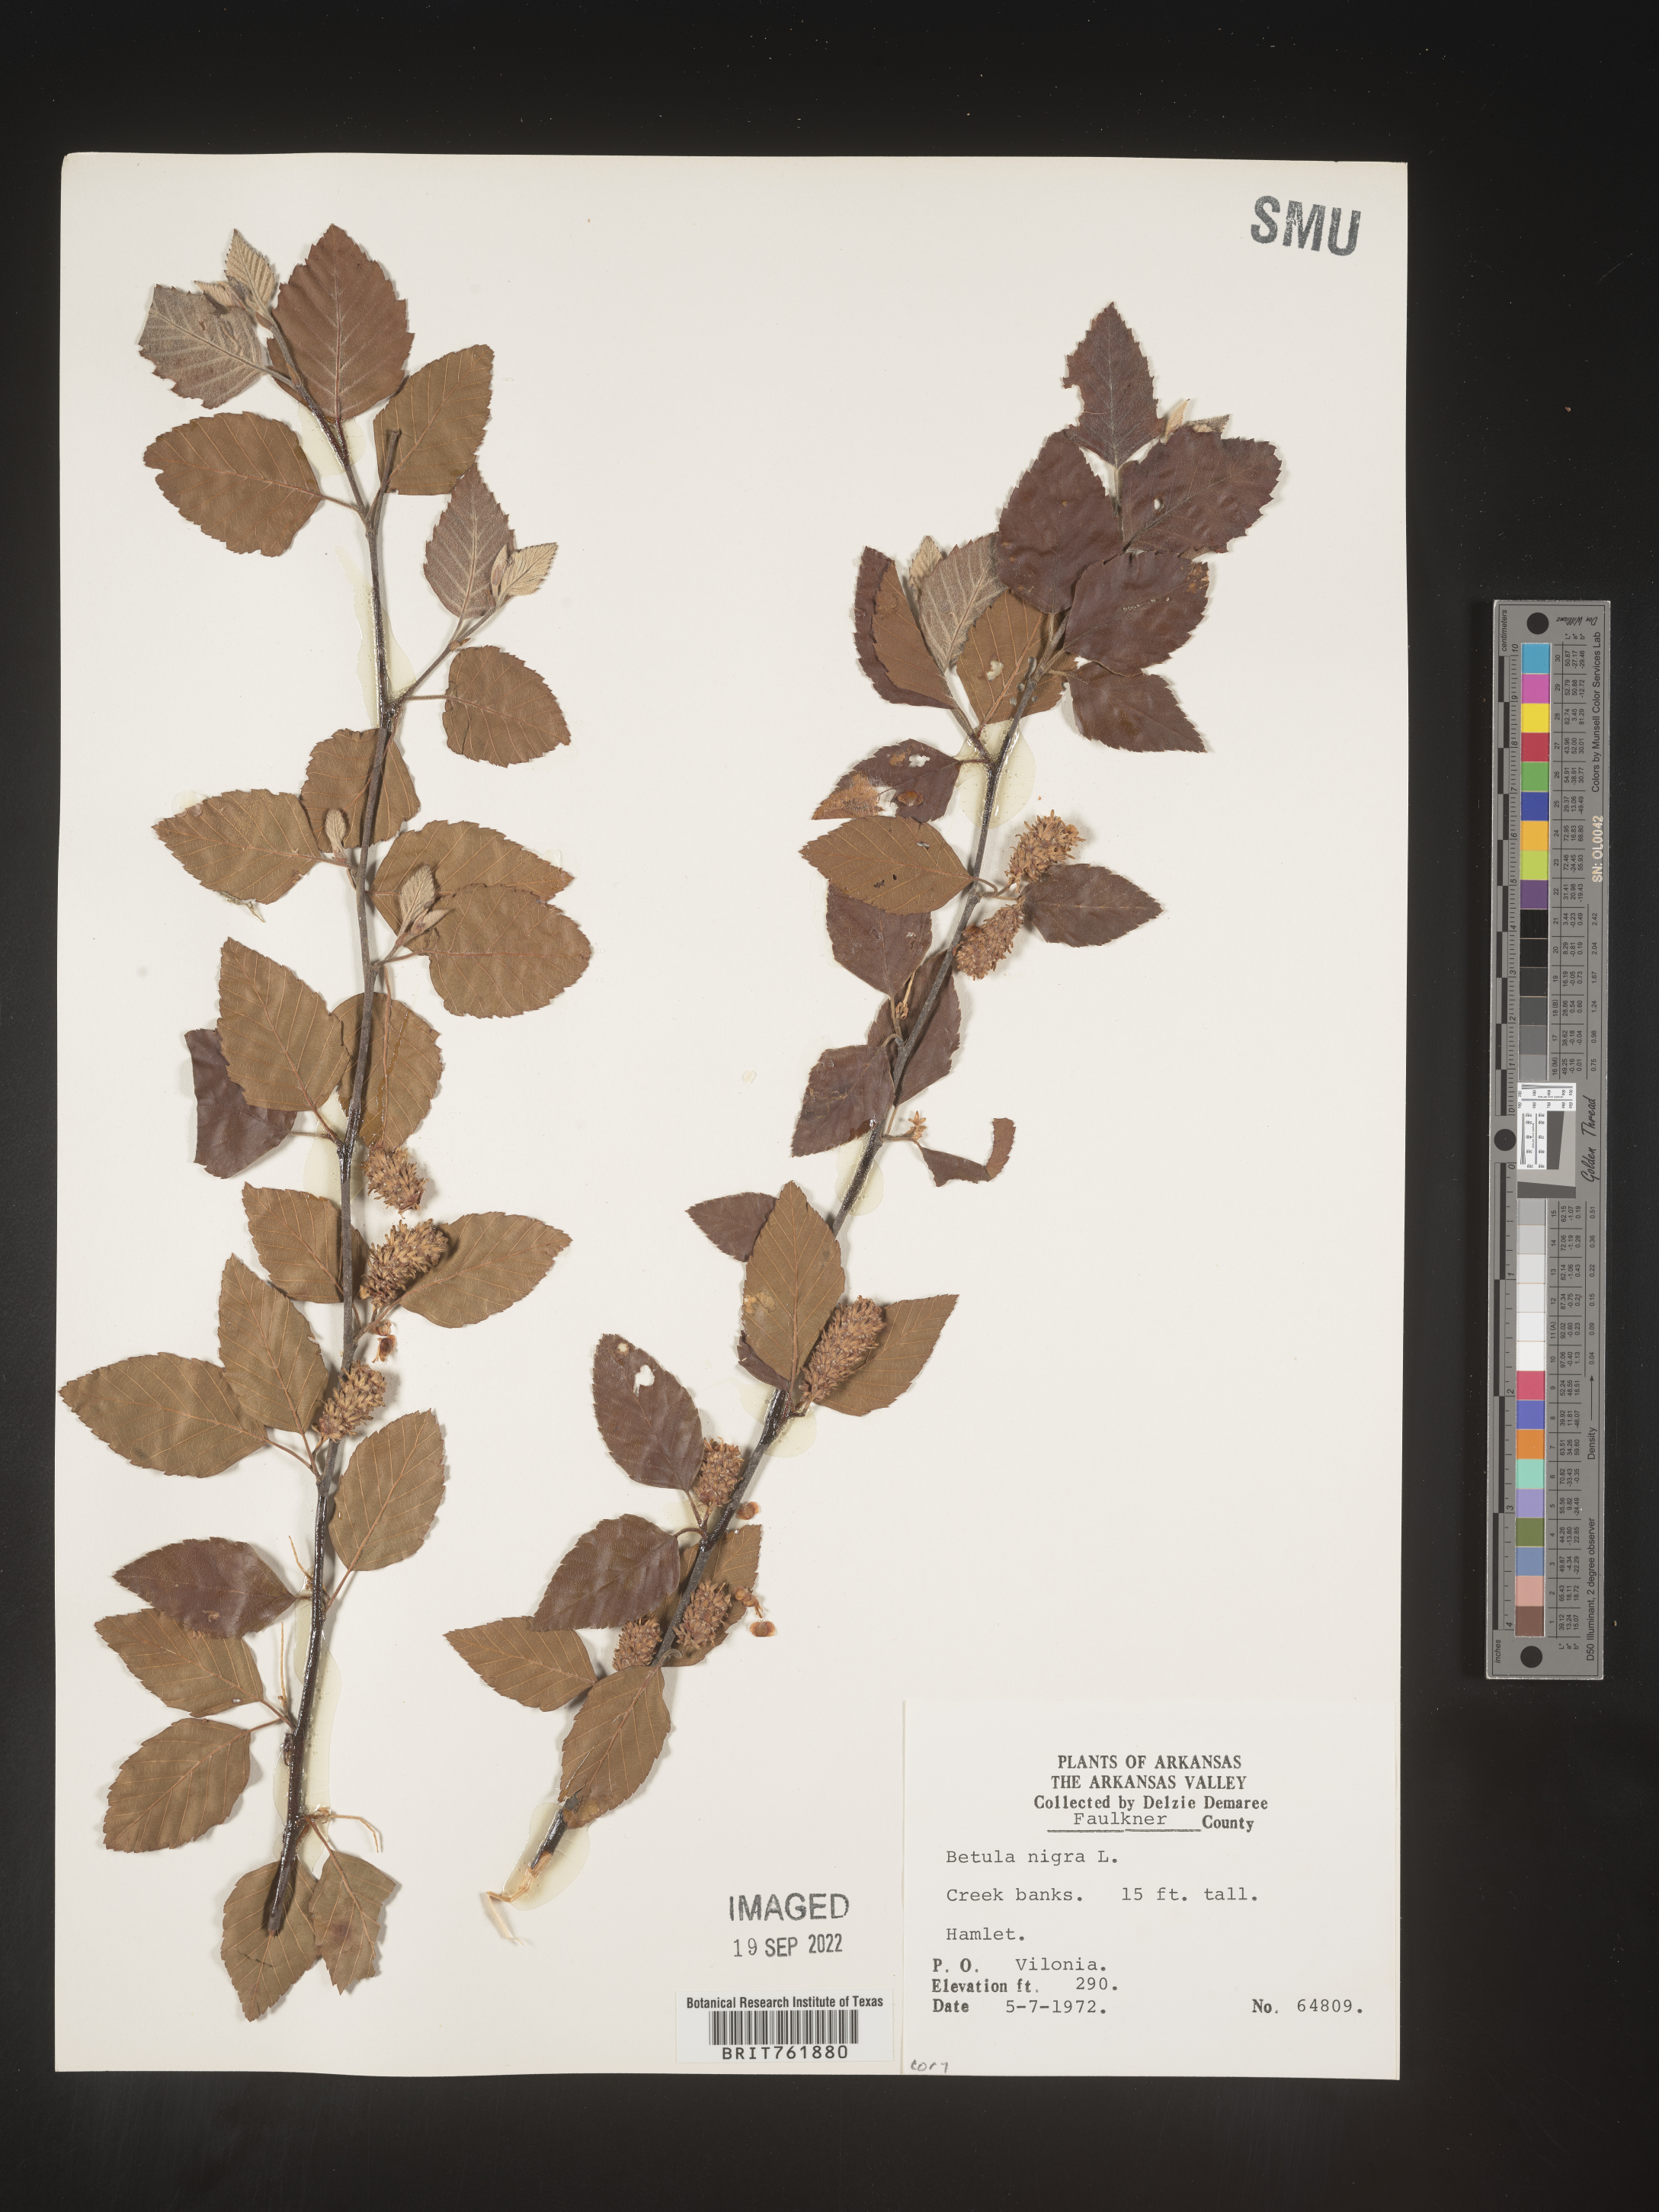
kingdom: Plantae
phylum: Tracheophyta
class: Magnoliopsida
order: Fagales
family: Betulaceae
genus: Betula
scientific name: Betula nigra
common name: Black birch
